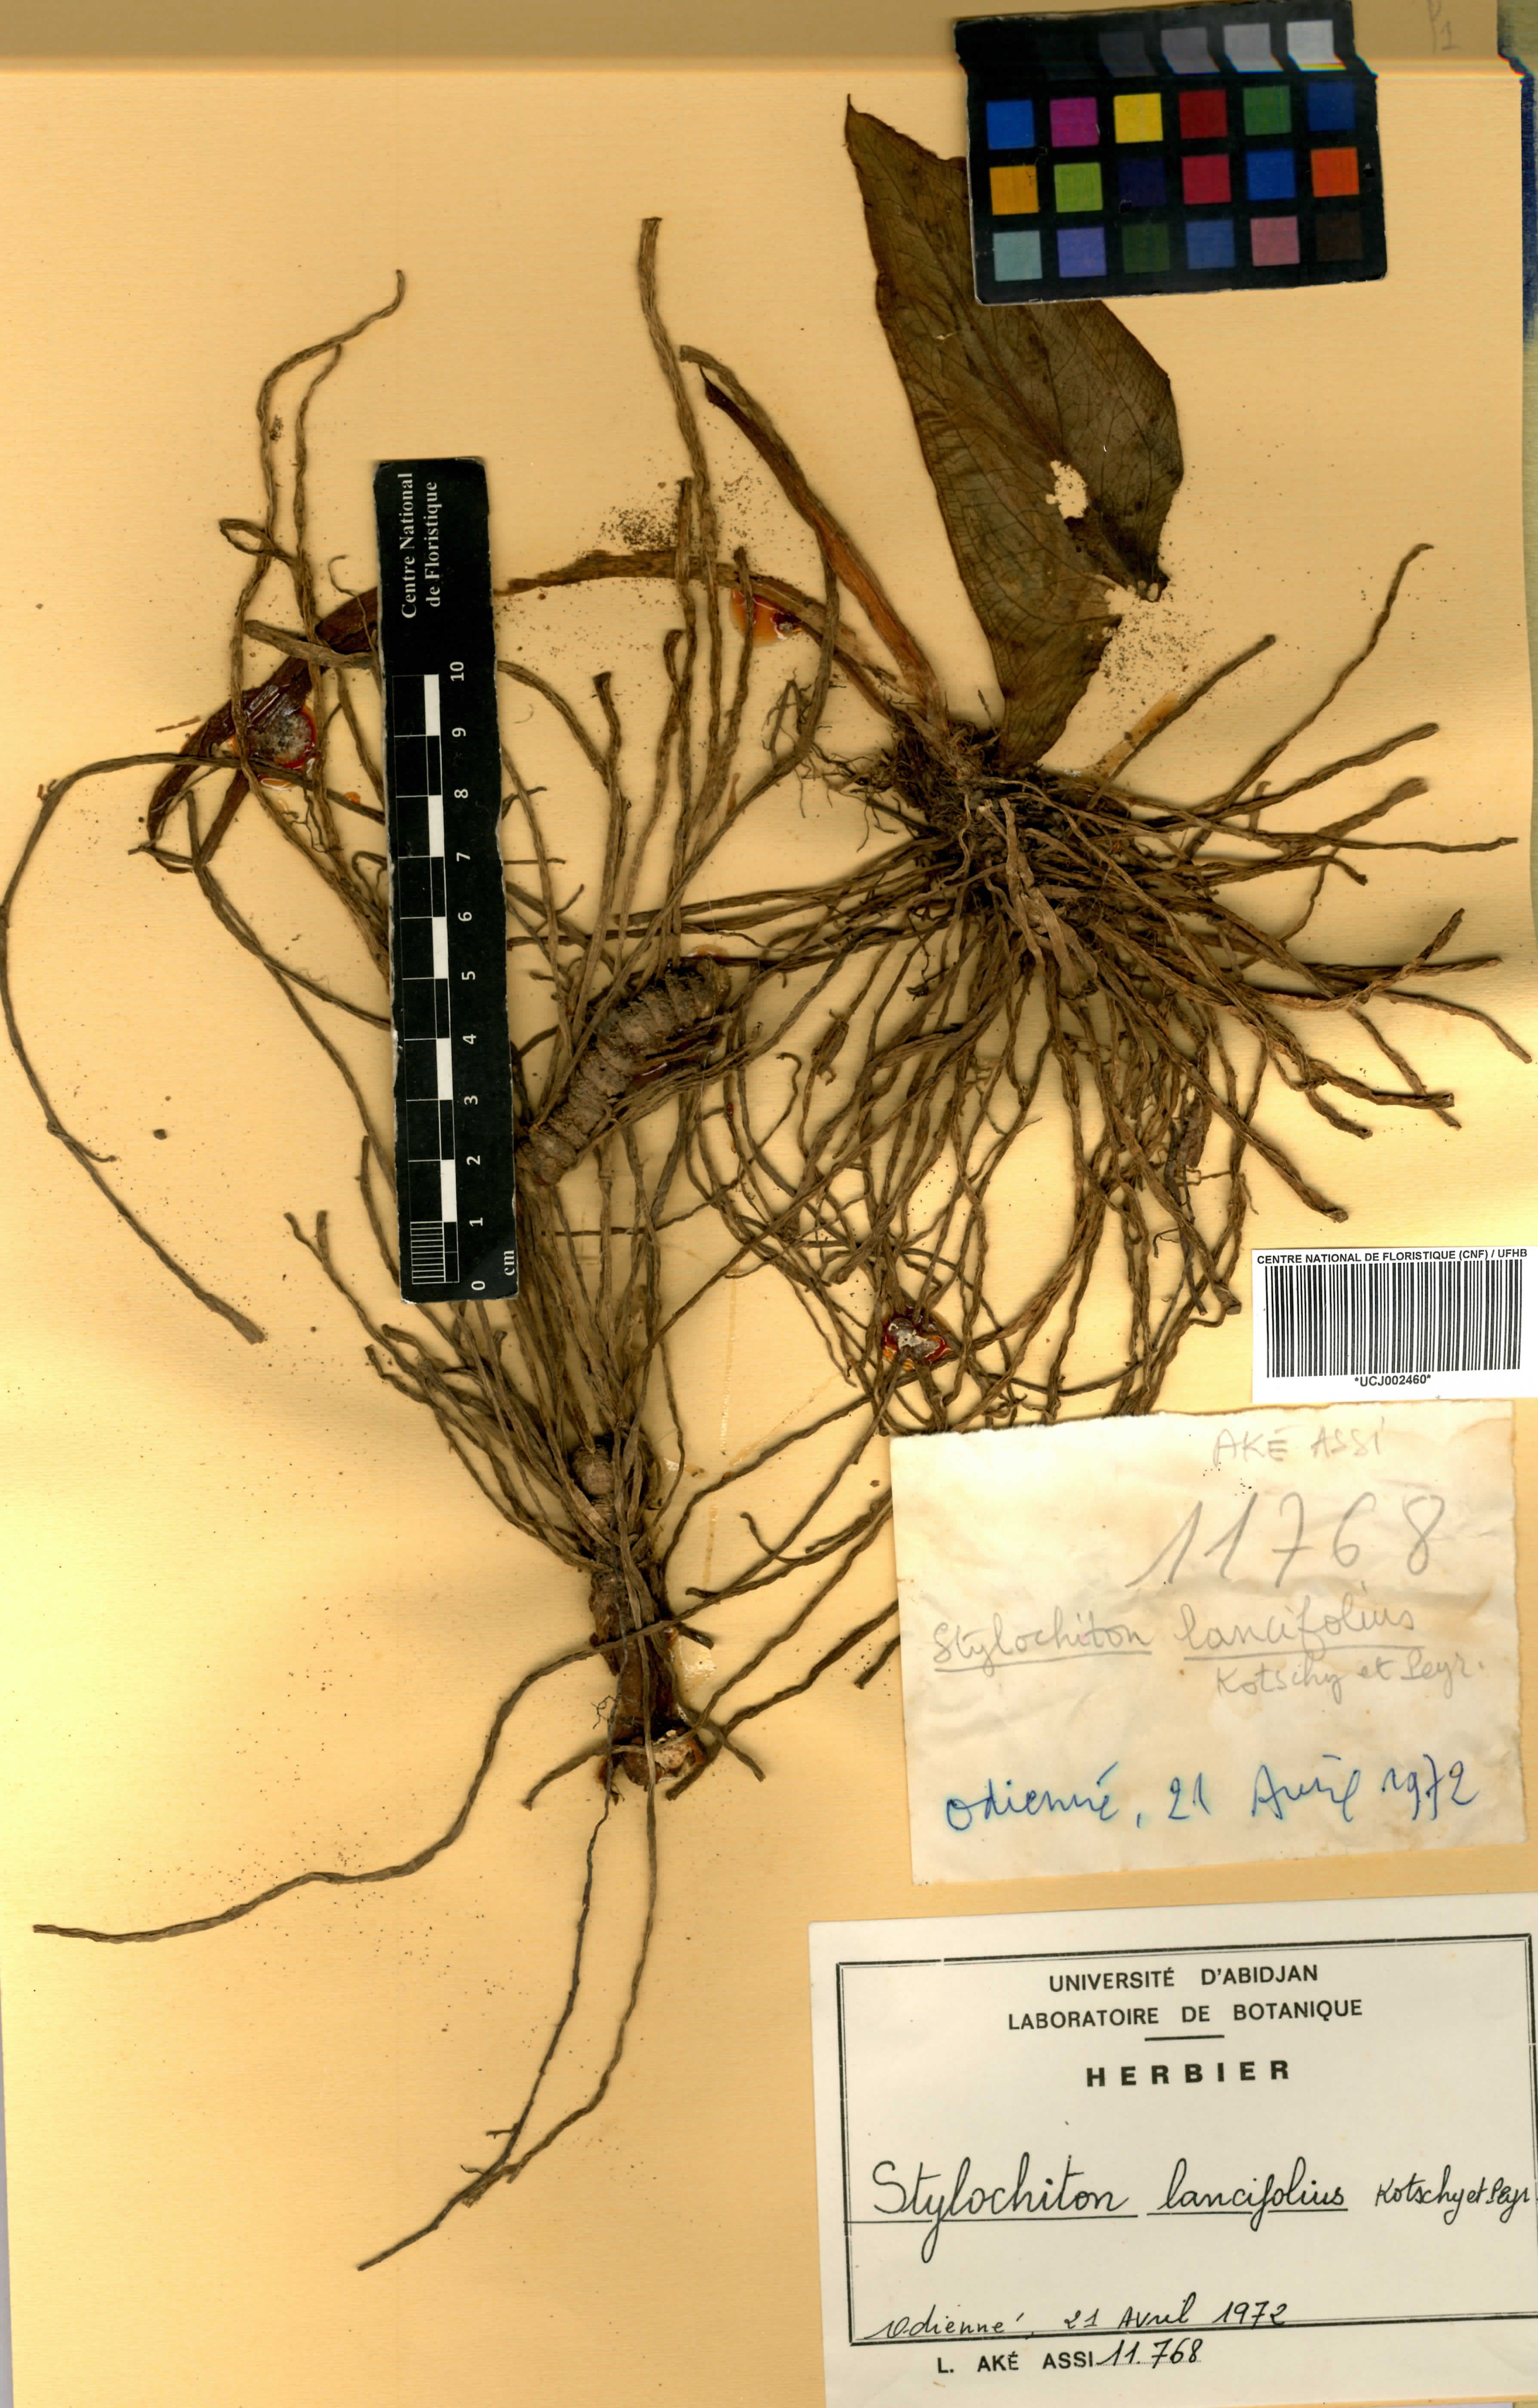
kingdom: Plantae
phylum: Tracheophyta
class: Liliopsida
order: Alismatales
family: Araceae
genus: Stylochaeton
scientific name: Stylochaeton lancifolium
